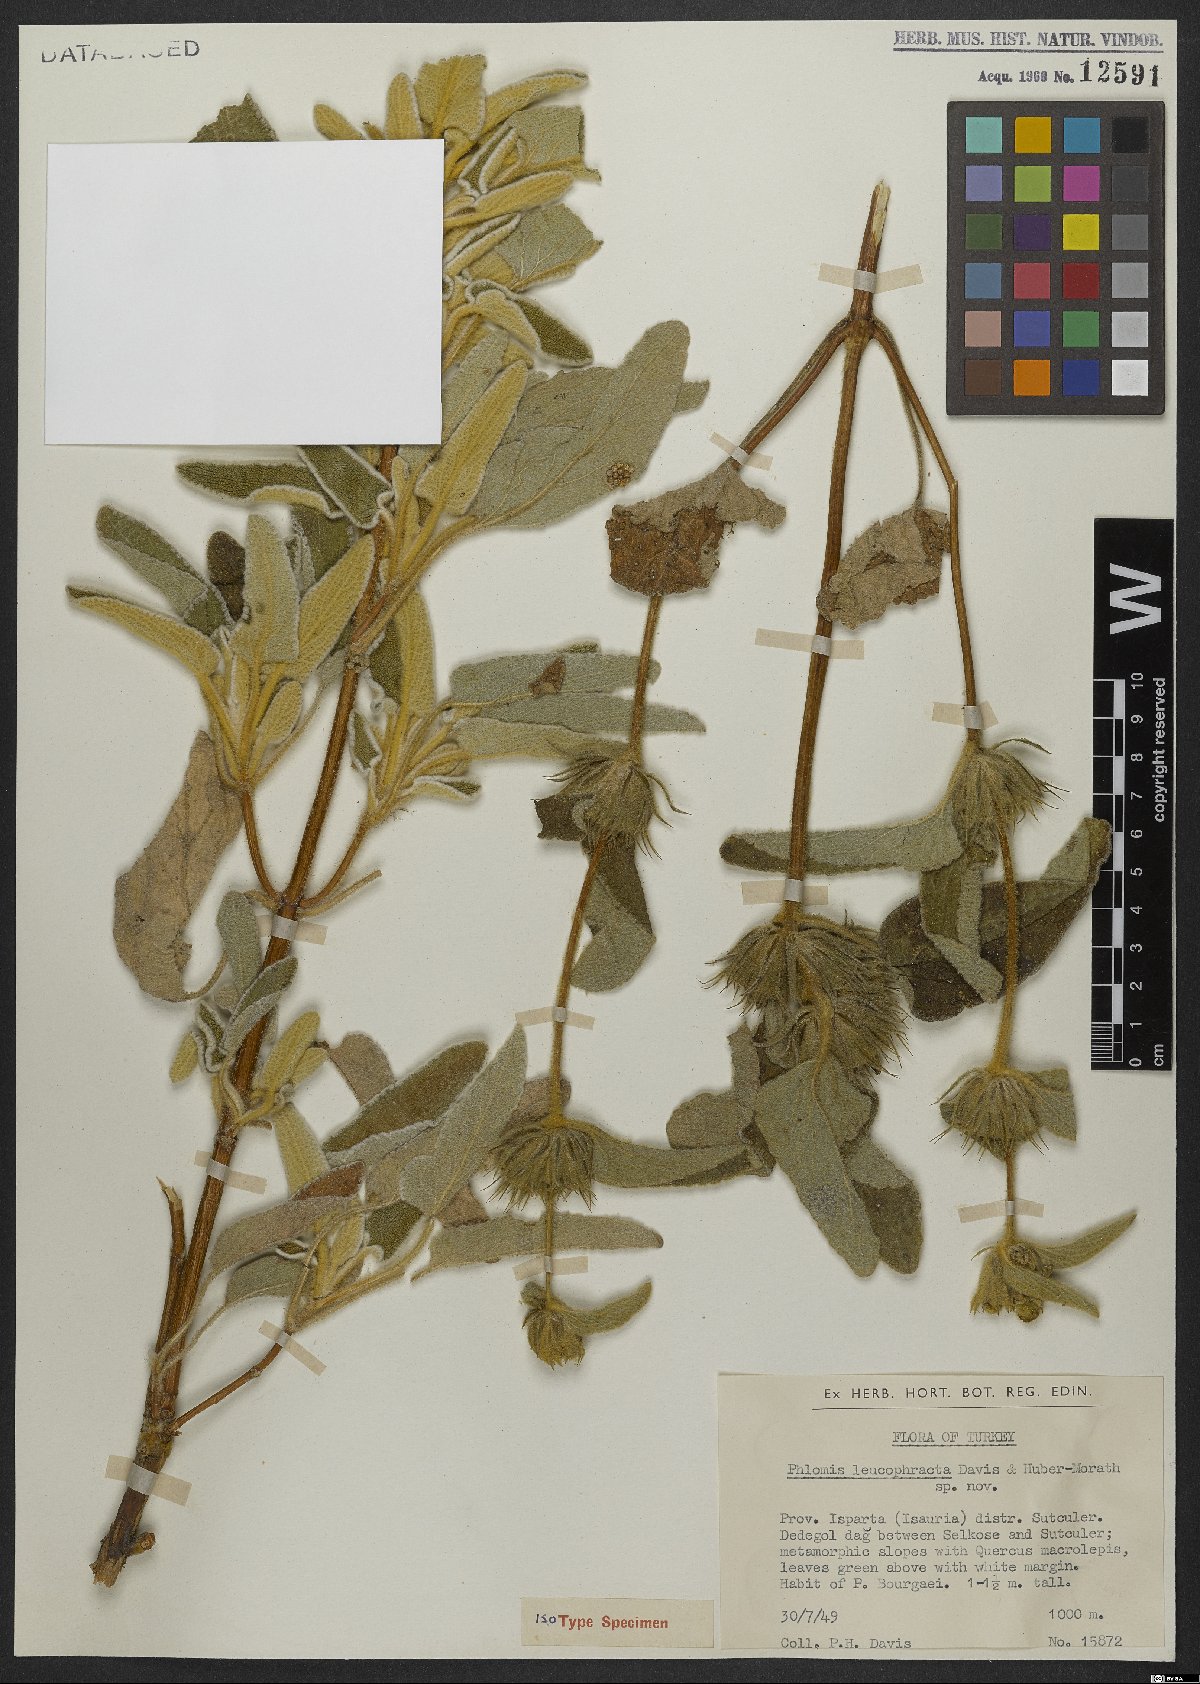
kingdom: Plantae
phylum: Tracheophyta
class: Magnoliopsida
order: Lamiales
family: Lamiaceae
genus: Phlomis
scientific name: Phlomis leucophracta
